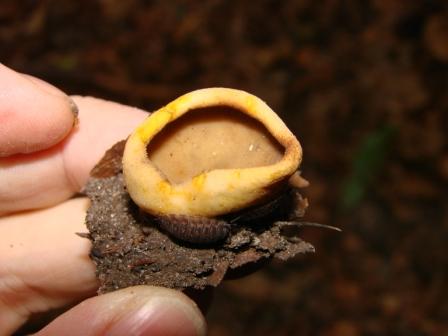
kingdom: Fungi
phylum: Ascomycota
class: Pezizomycetes
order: Pezizales
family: Pezizaceae
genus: Paragalactinia
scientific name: Paragalactinia succosa
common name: gulmælket bægersvamp
